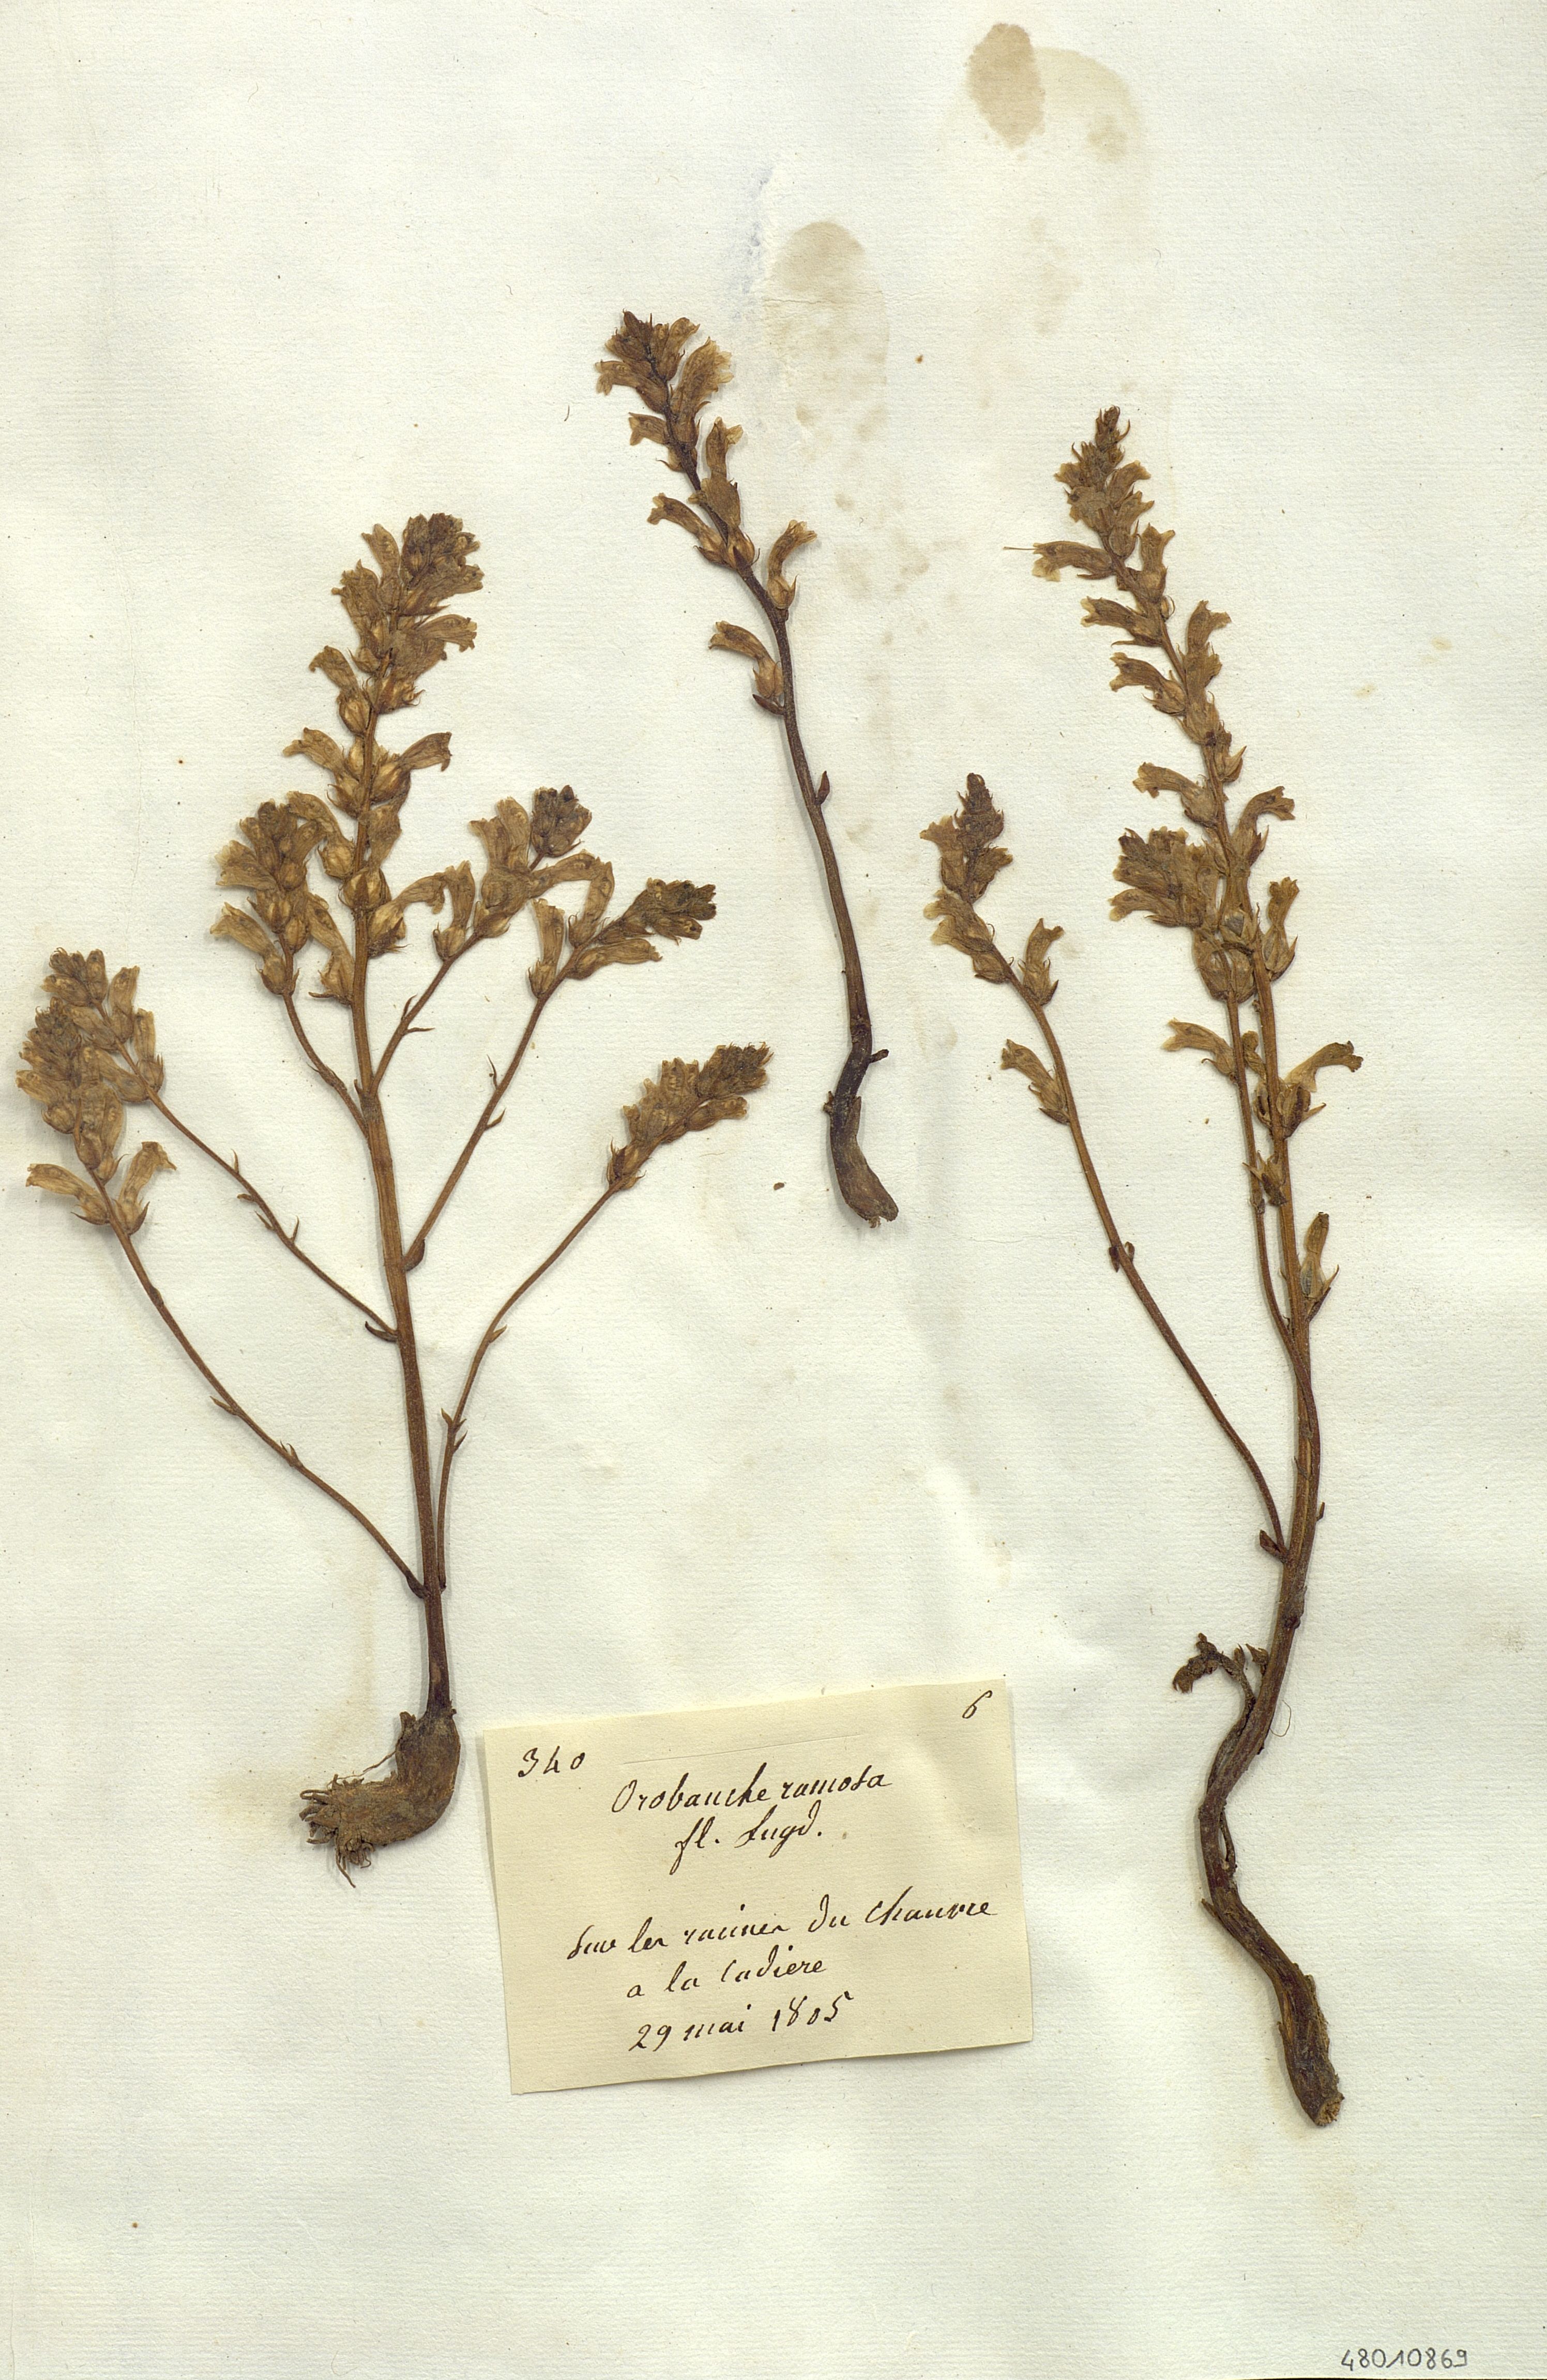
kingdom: Plantae
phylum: Tracheophyta
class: Magnoliopsida
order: Lamiales
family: Orobanchaceae
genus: Orobanche
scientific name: Orobanche ramosa
